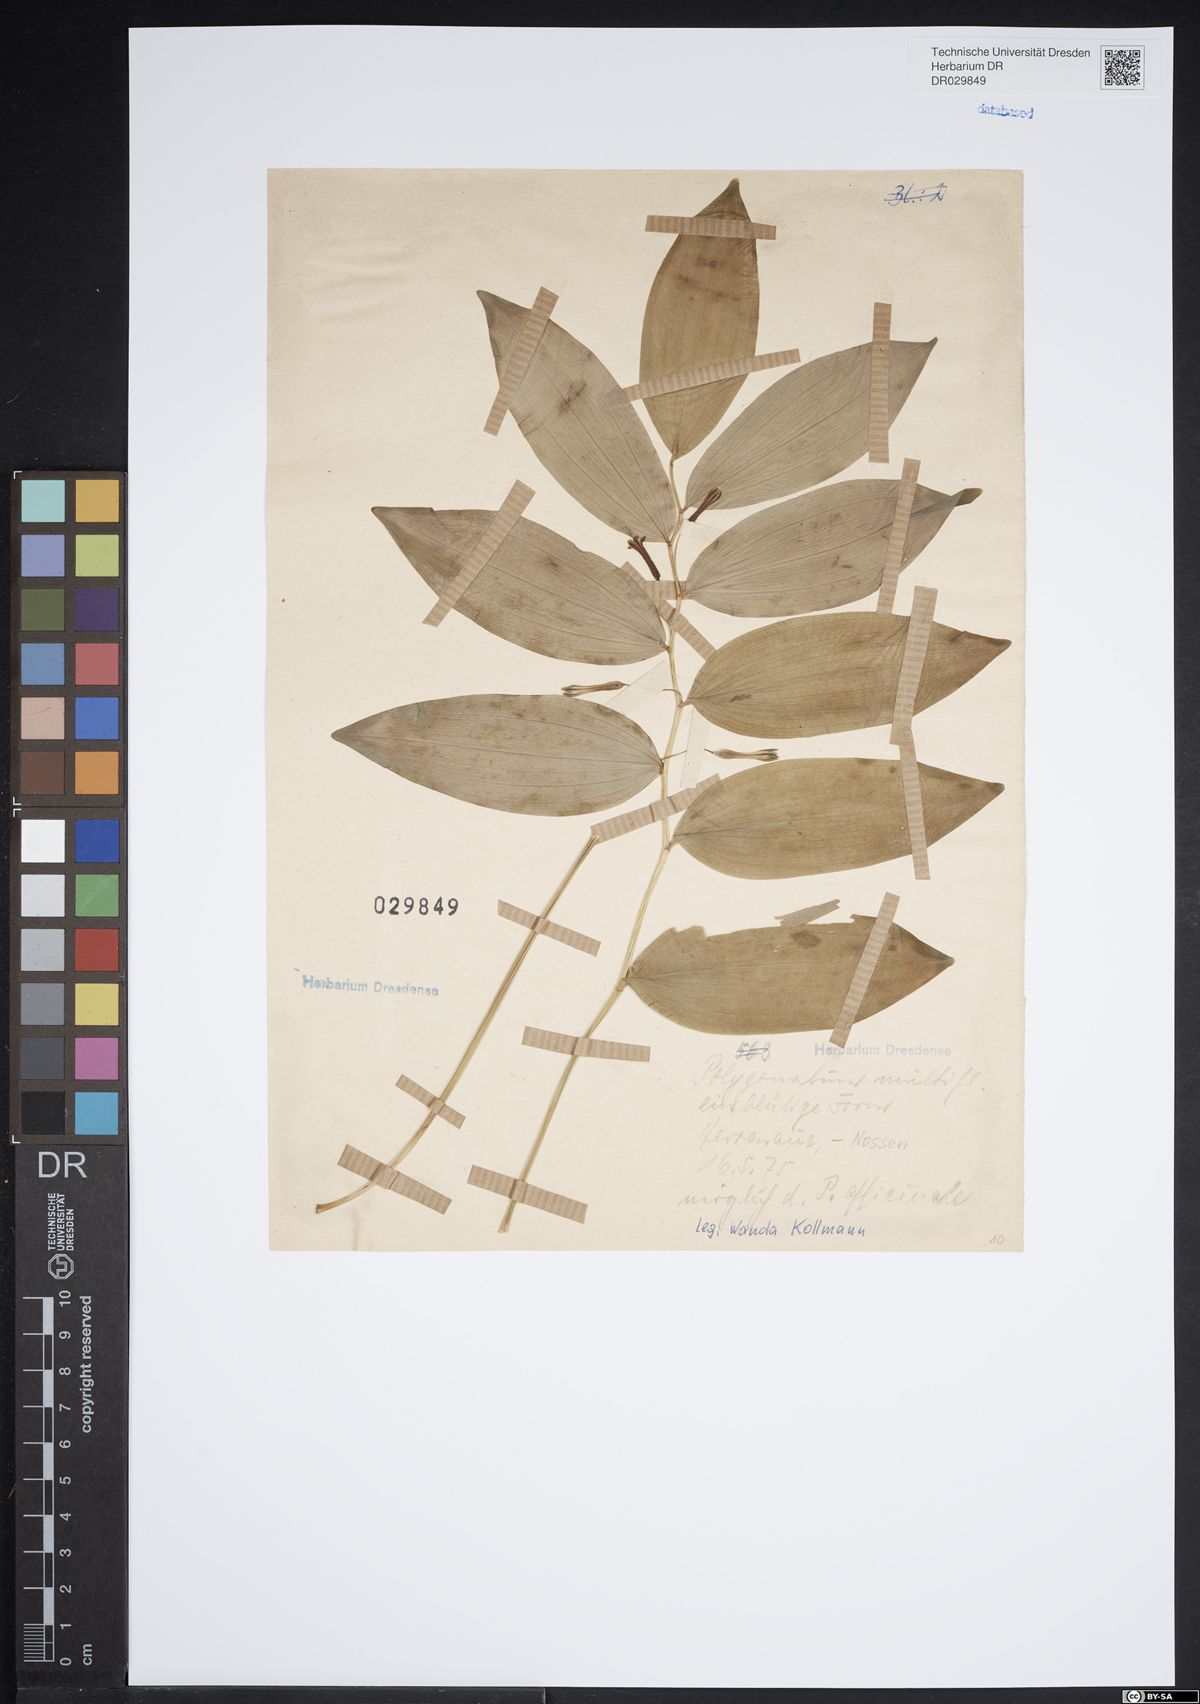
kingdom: Plantae
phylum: Tracheophyta
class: Liliopsida
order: Asparagales
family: Asparagaceae
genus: Polygonatum
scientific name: Polygonatum odoratum
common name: Angular solomon's-seal
